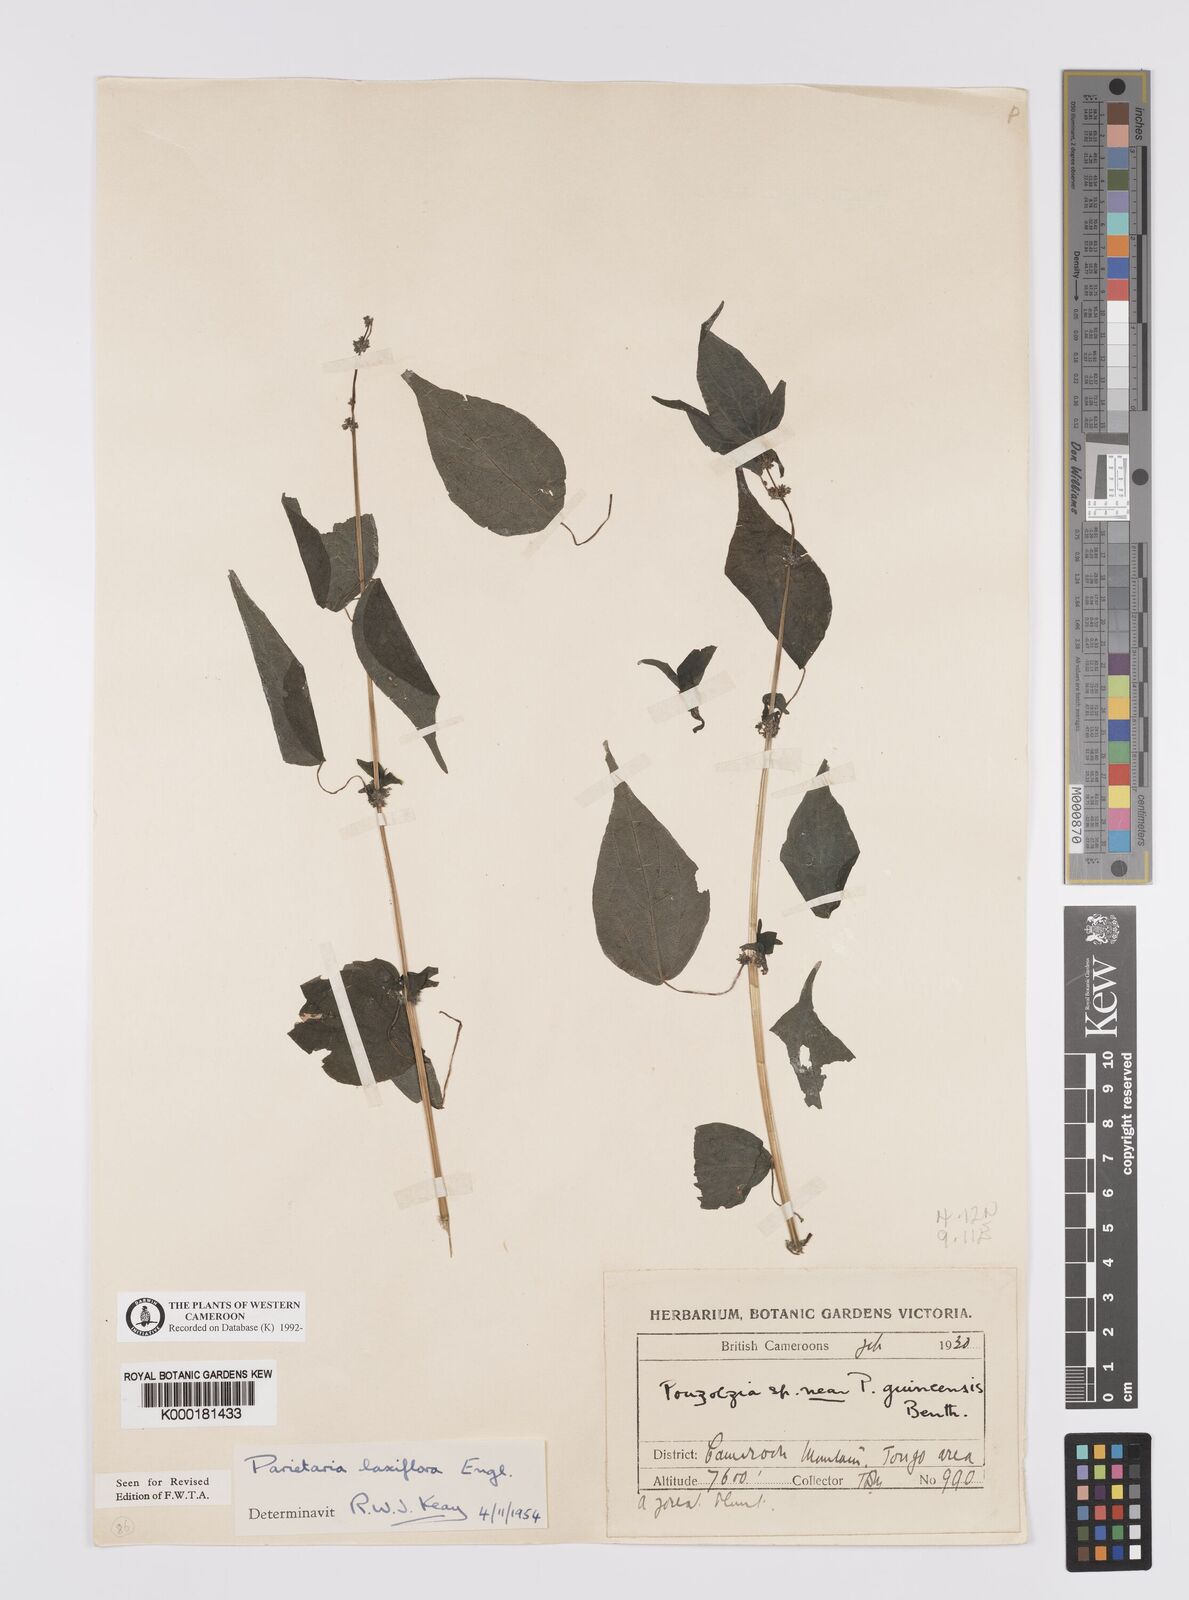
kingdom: Plantae
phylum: Tracheophyta
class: Magnoliopsida
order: Rosales
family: Urticaceae
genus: Parietaria
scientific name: Parietaria debilis
